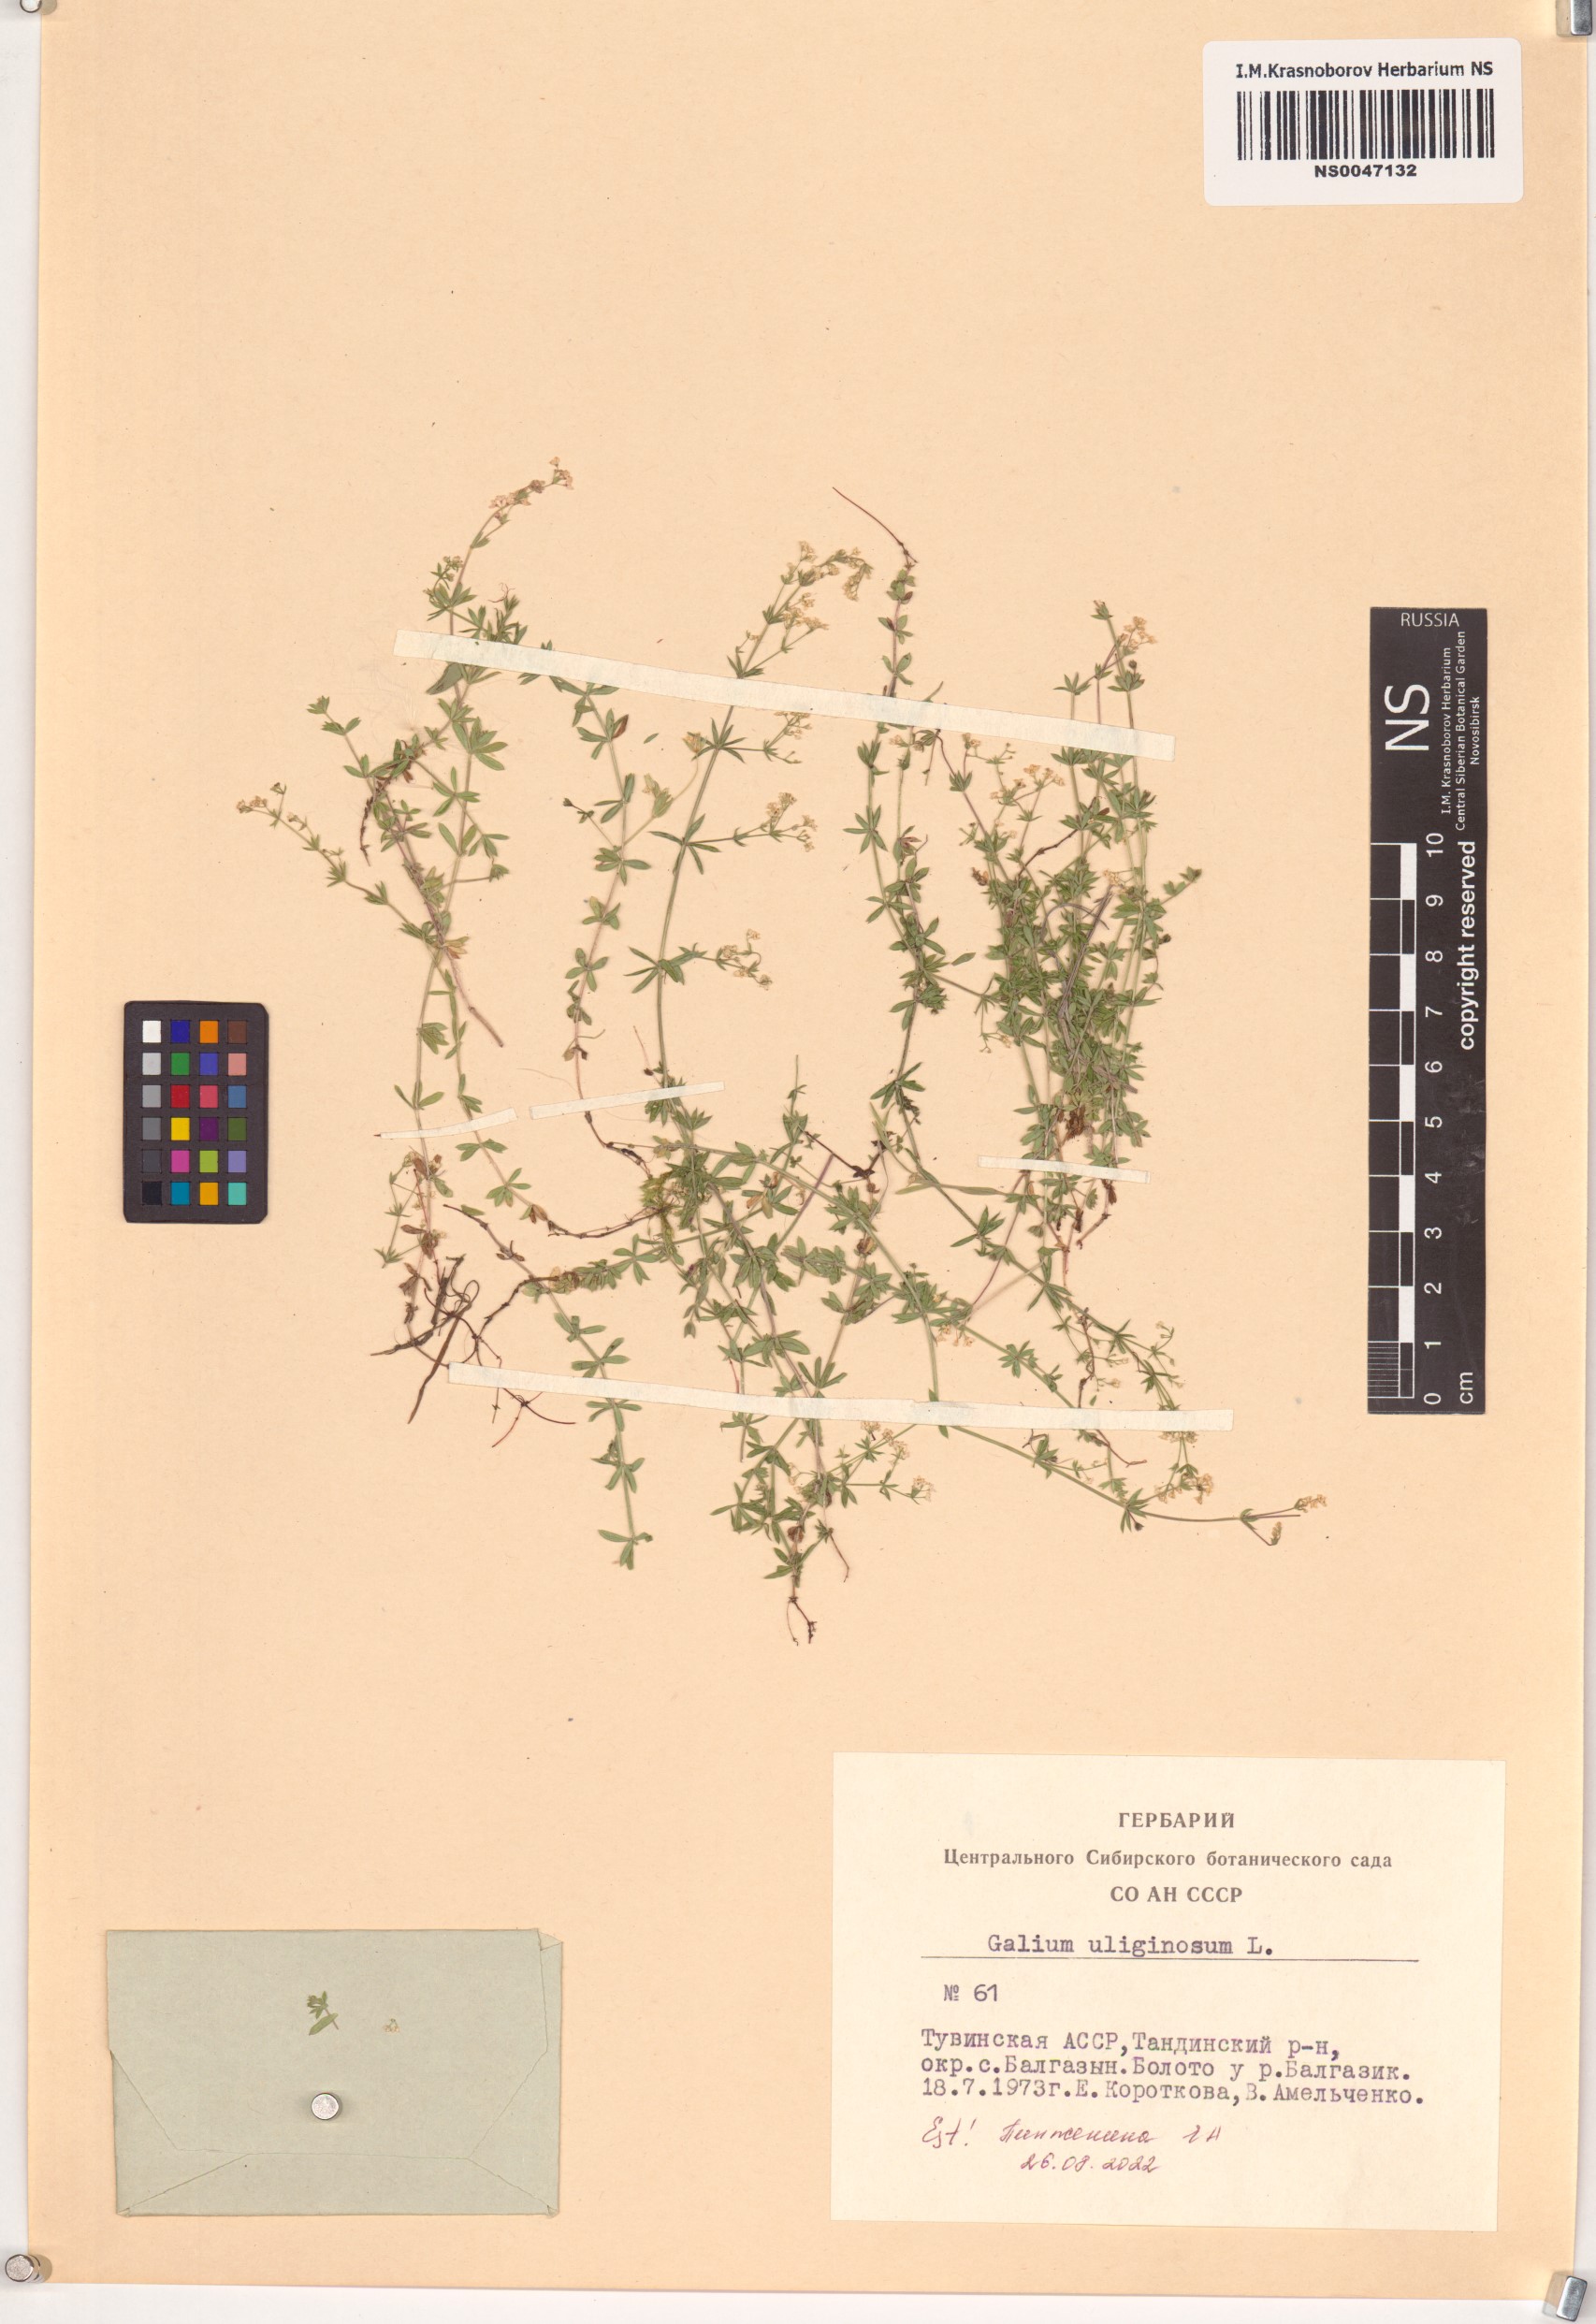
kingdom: Plantae
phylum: Tracheophyta
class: Magnoliopsida
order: Gentianales
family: Rubiaceae
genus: Galium
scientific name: Galium uliginosum
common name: Fen bedstraw
